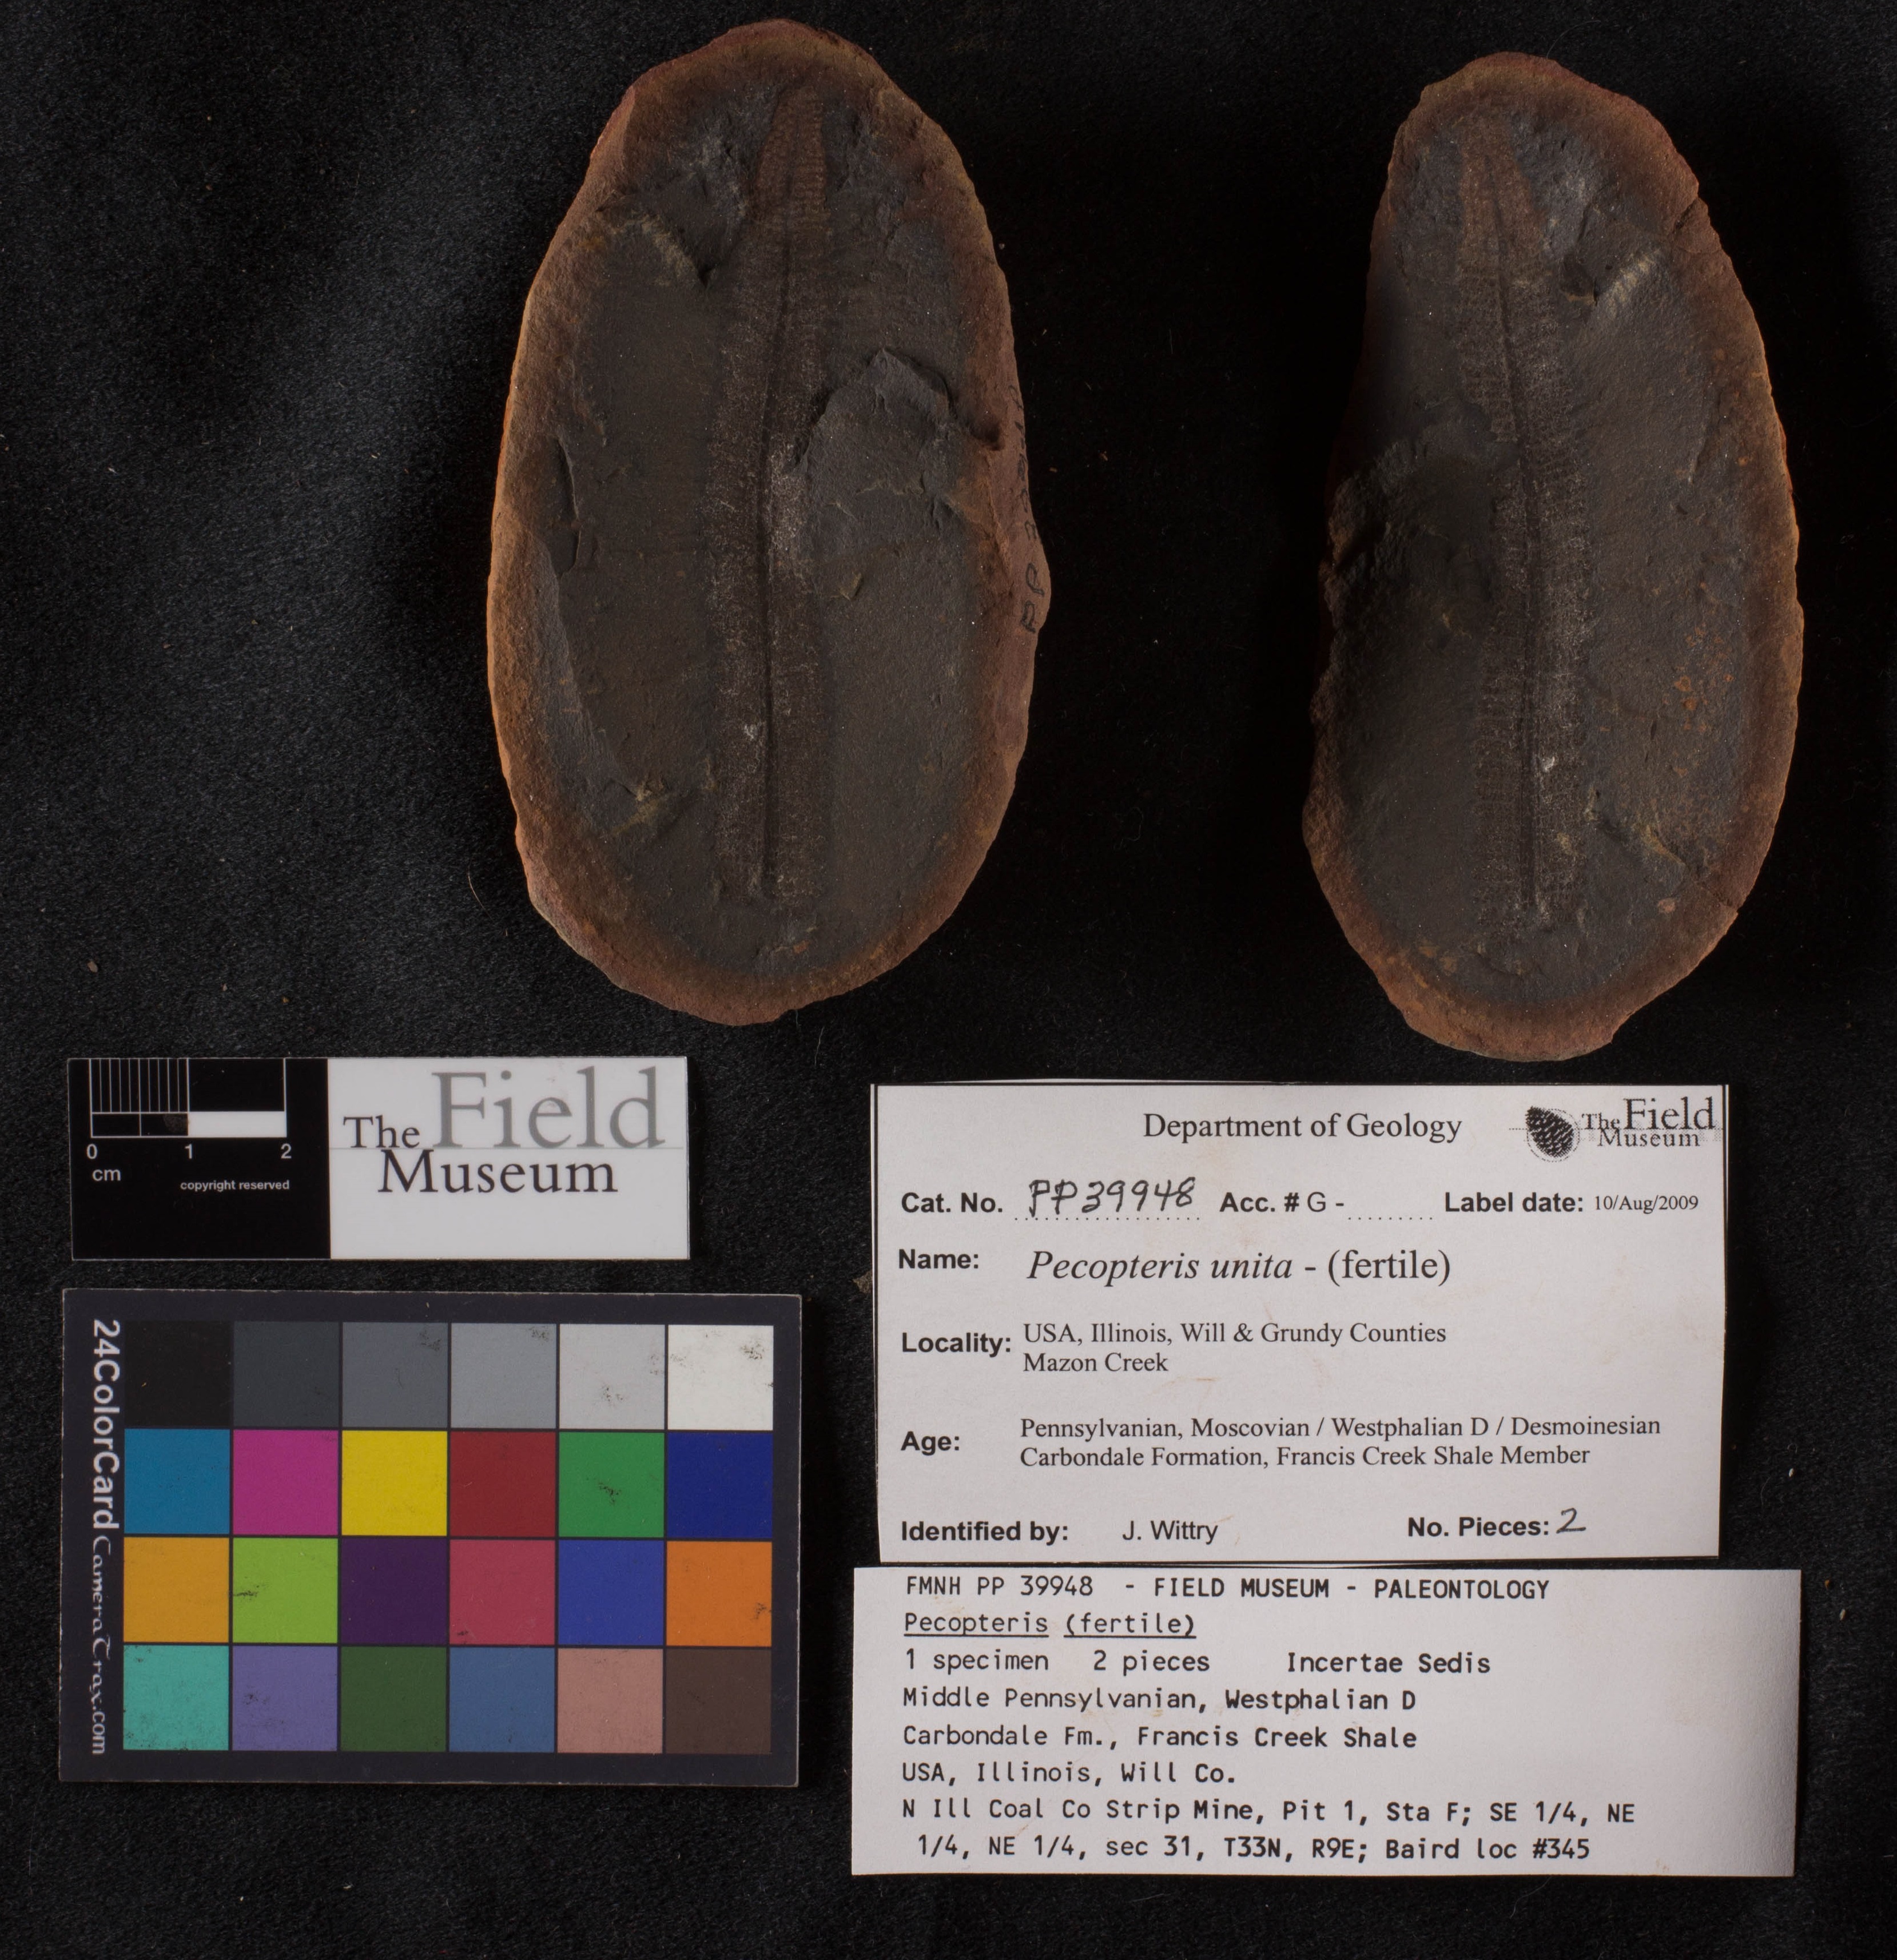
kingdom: Plantae
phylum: Tracheophyta
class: Polypodiopsida
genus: Diplazites
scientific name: Diplazites
